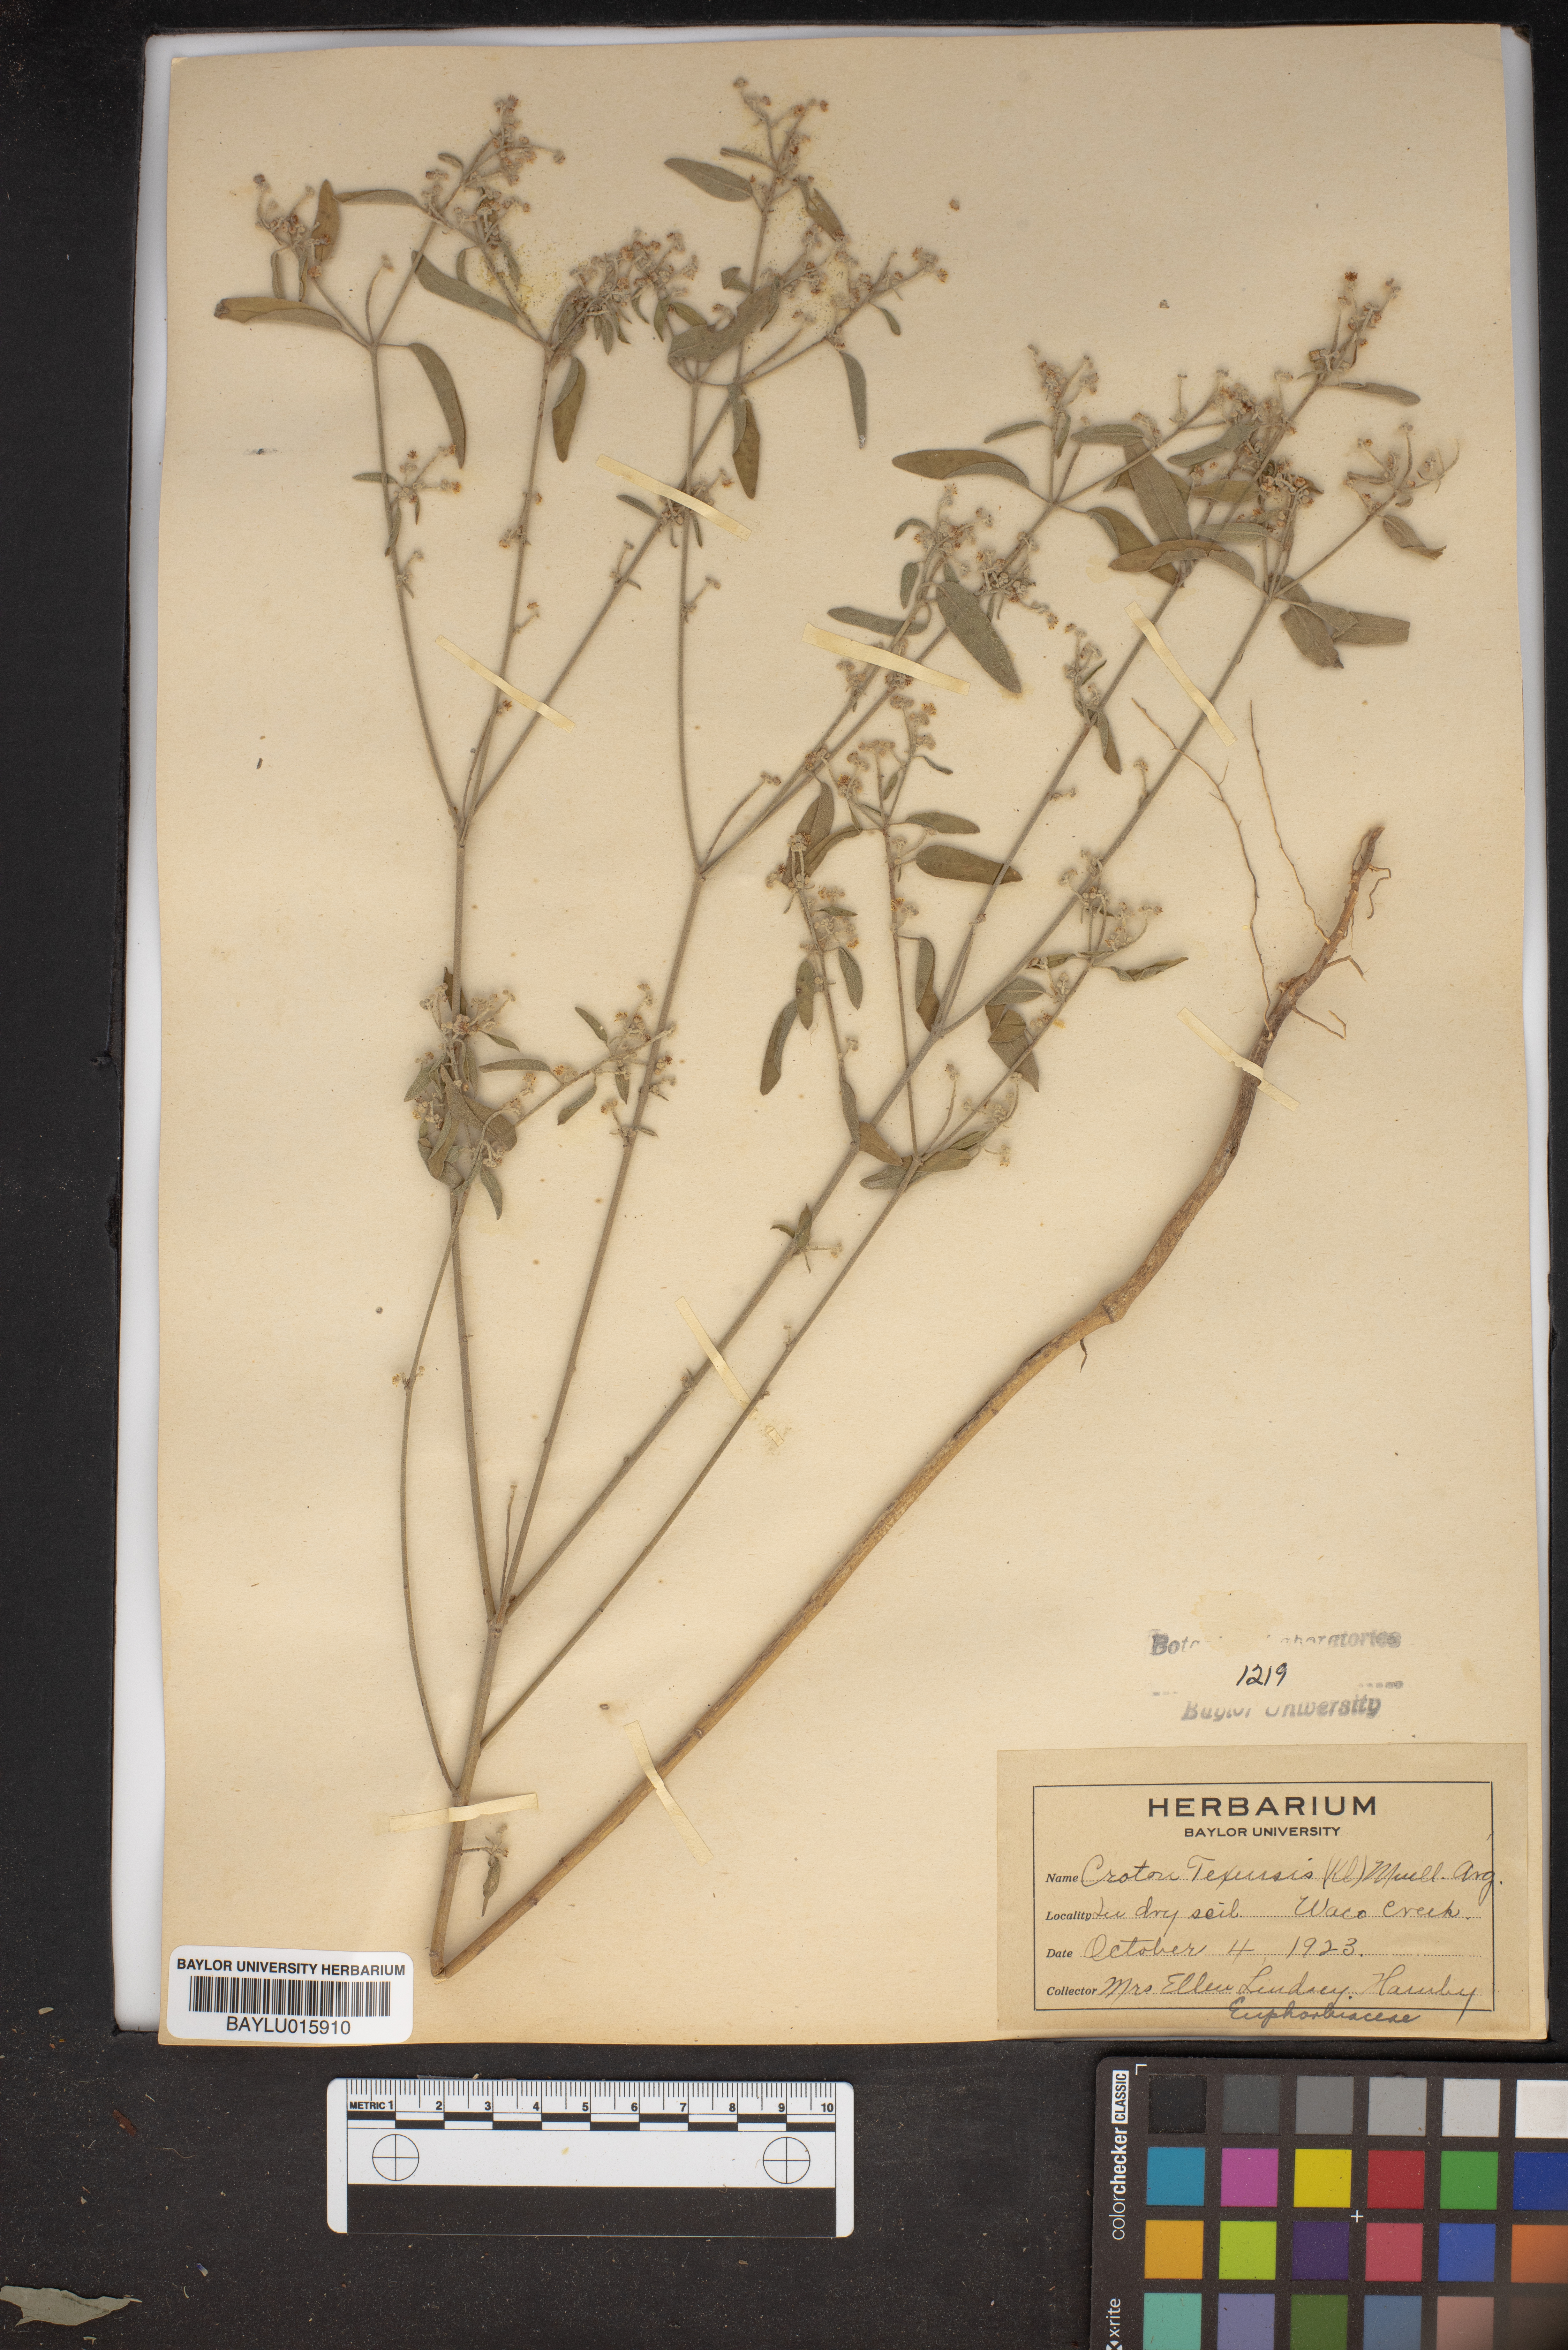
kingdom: Plantae
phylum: Tracheophyta
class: Magnoliopsida
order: Malpighiales
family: Euphorbiaceae
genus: Croton
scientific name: Croton texensis
